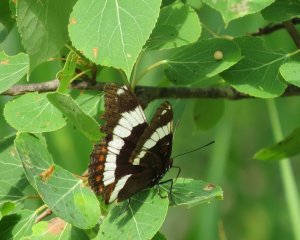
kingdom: Animalia
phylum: Arthropoda
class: Insecta
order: Lepidoptera
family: Nymphalidae
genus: Limenitis
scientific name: Limenitis arthemis
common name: Red-spotted Admiral
